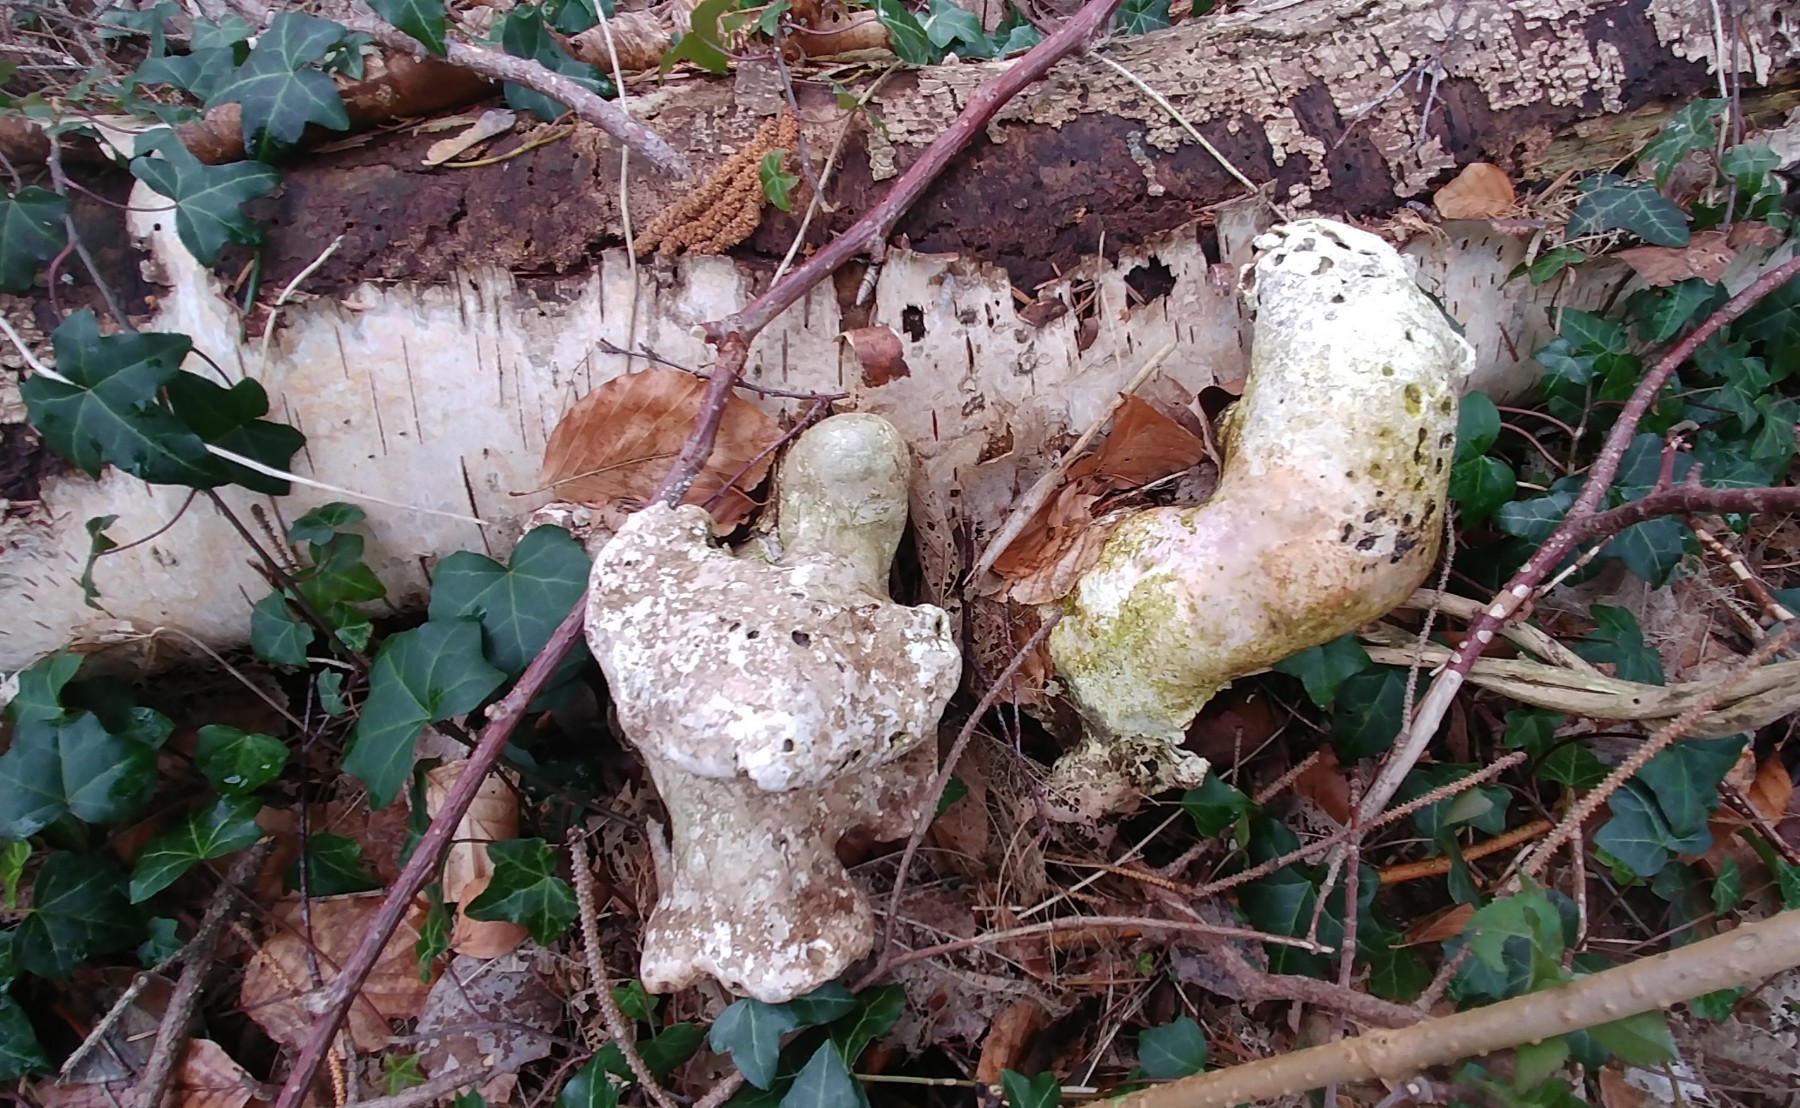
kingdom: Fungi
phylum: Basidiomycota
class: Agaricomycetes
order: Polyporales
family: Fomitopsidaceae
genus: Fomitopsis
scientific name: Fomitopsis betulina
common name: birkeporesvamp
